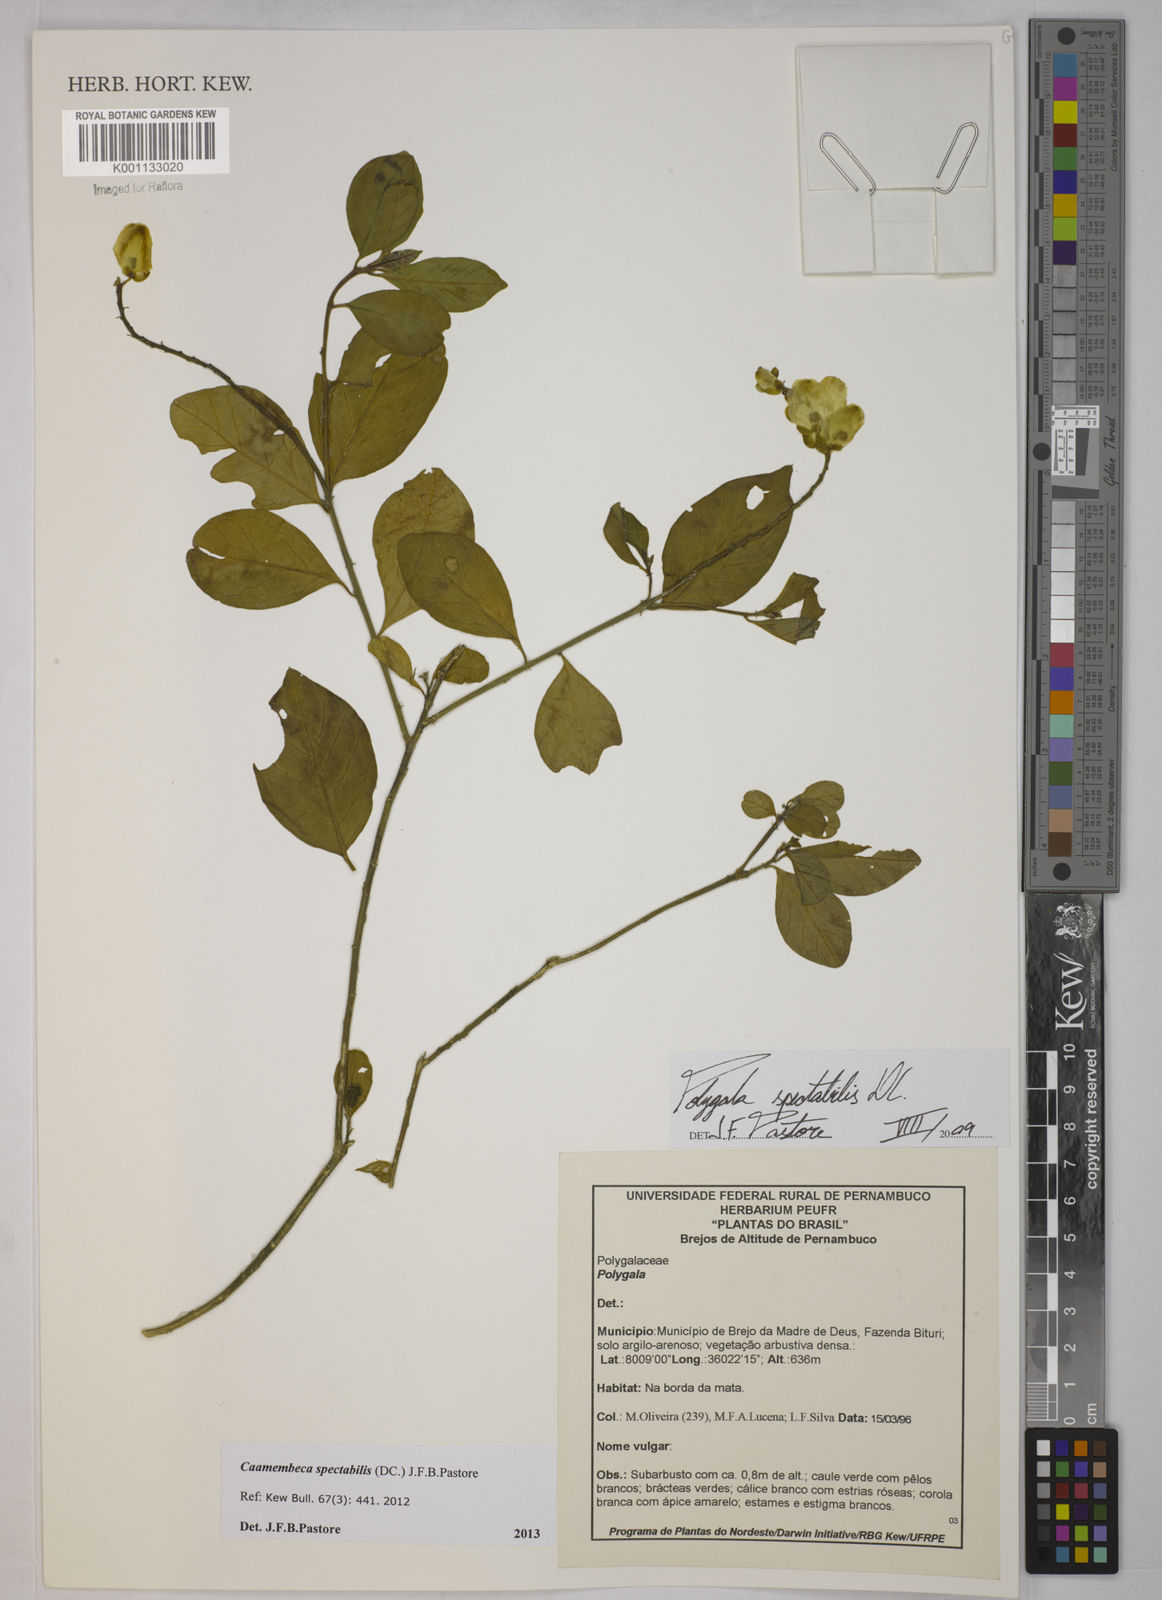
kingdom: Plantae
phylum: Tracheophyta
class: Magnoliopsida
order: Fabales
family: Polygalaceae
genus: Polygala
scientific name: Polygala
